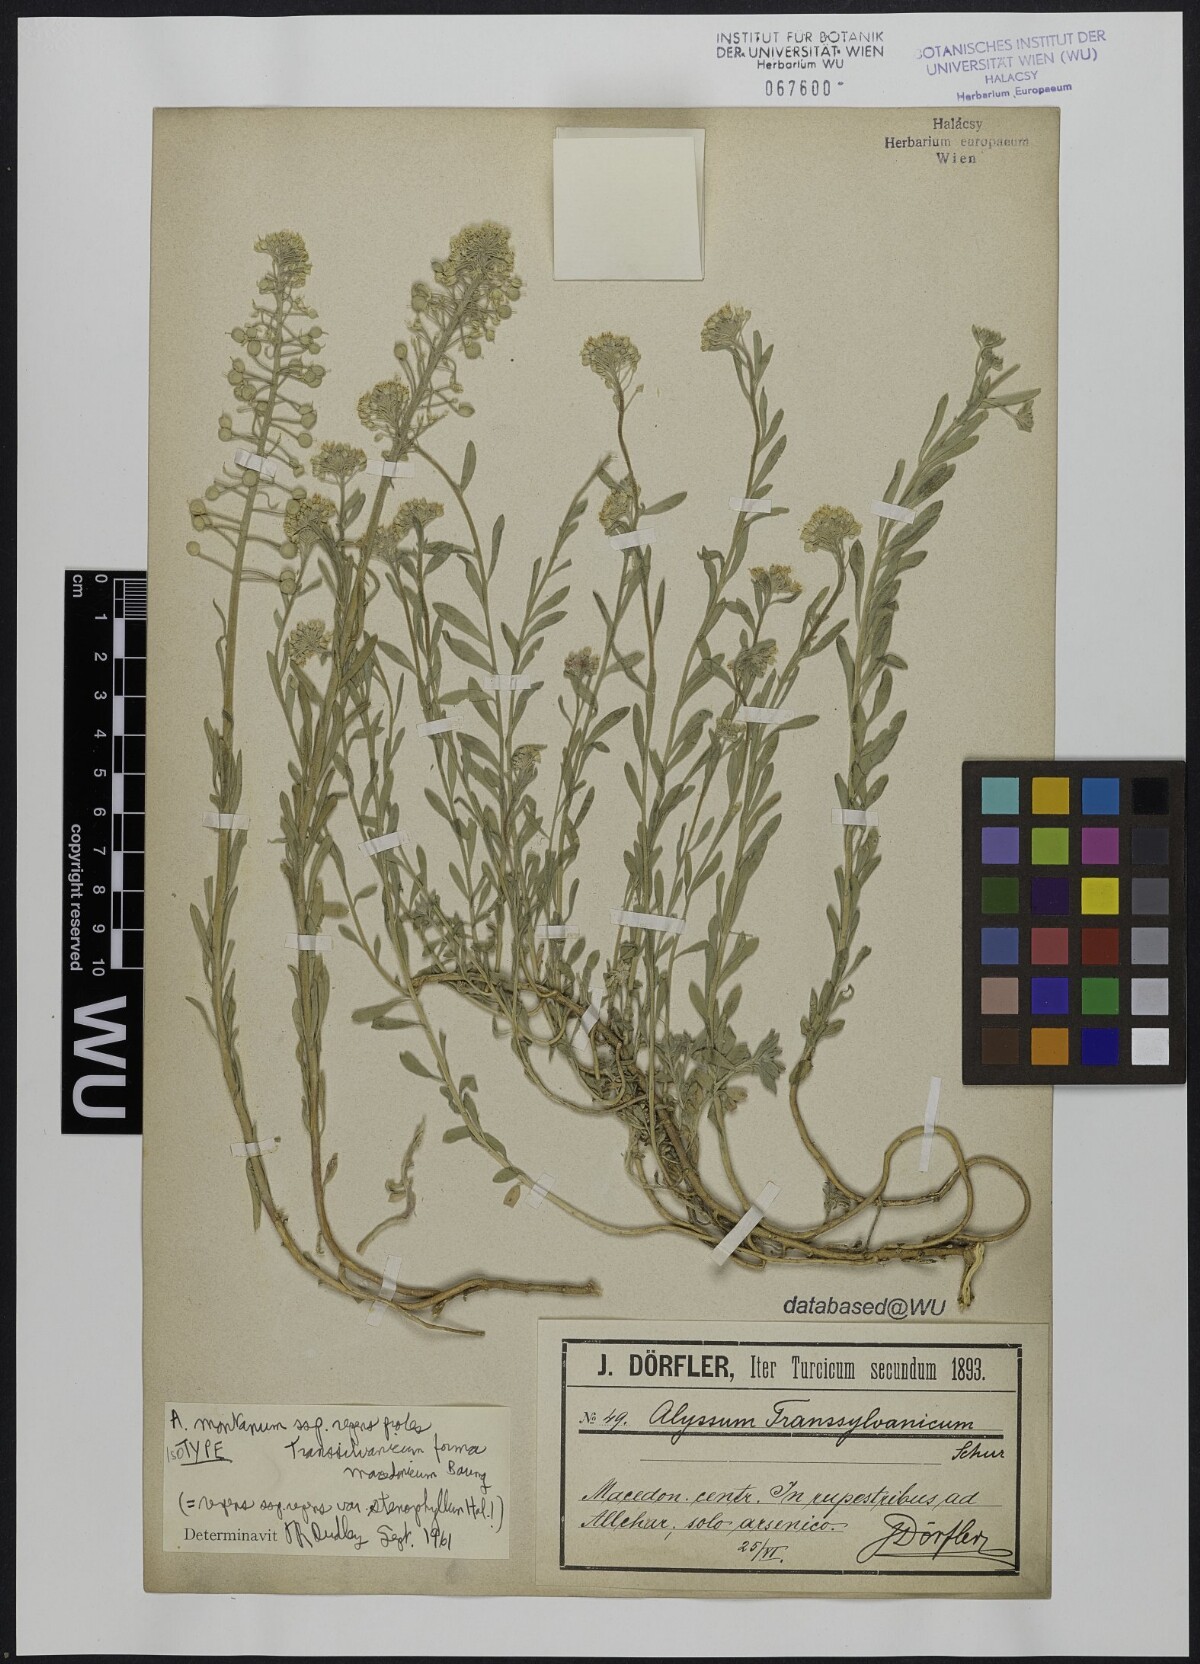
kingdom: Plantae
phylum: Tracheophyta
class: Magnoliopsida
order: Brassicales
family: Brassicaceae
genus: Alyssum
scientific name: Alyssum montanum
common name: Mountain alison
